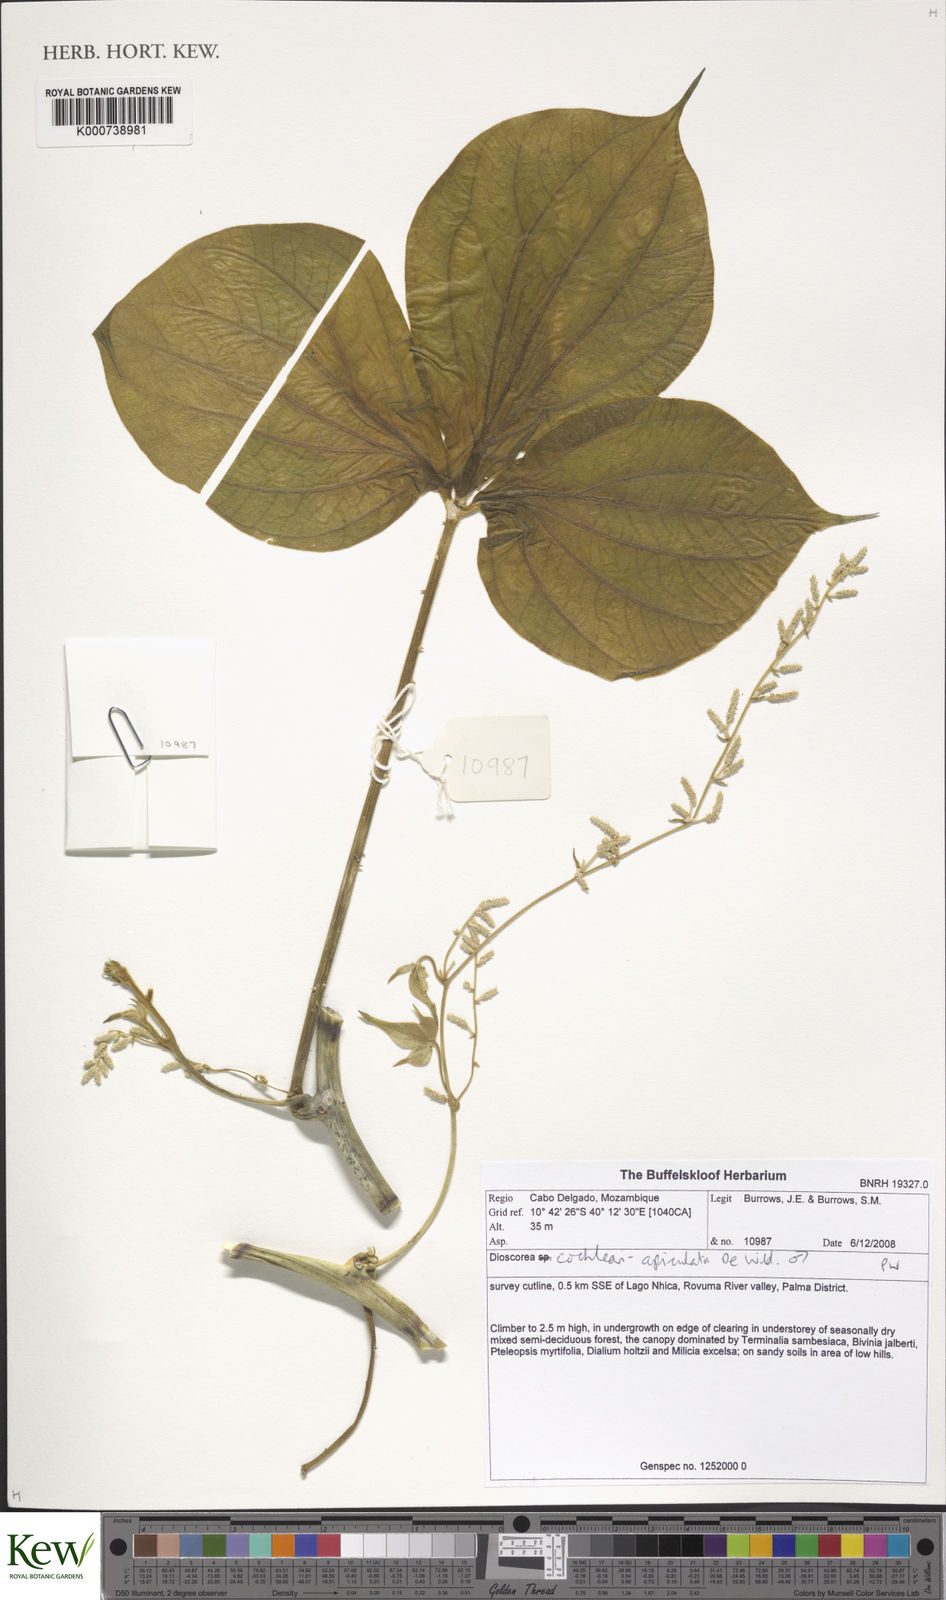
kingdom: Plantae
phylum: Tracheophyta
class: Liliopsida
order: Dioscoreales
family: Dioscoreaceae
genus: Dioscorea
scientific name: Dioscorea cochleariapiculata
